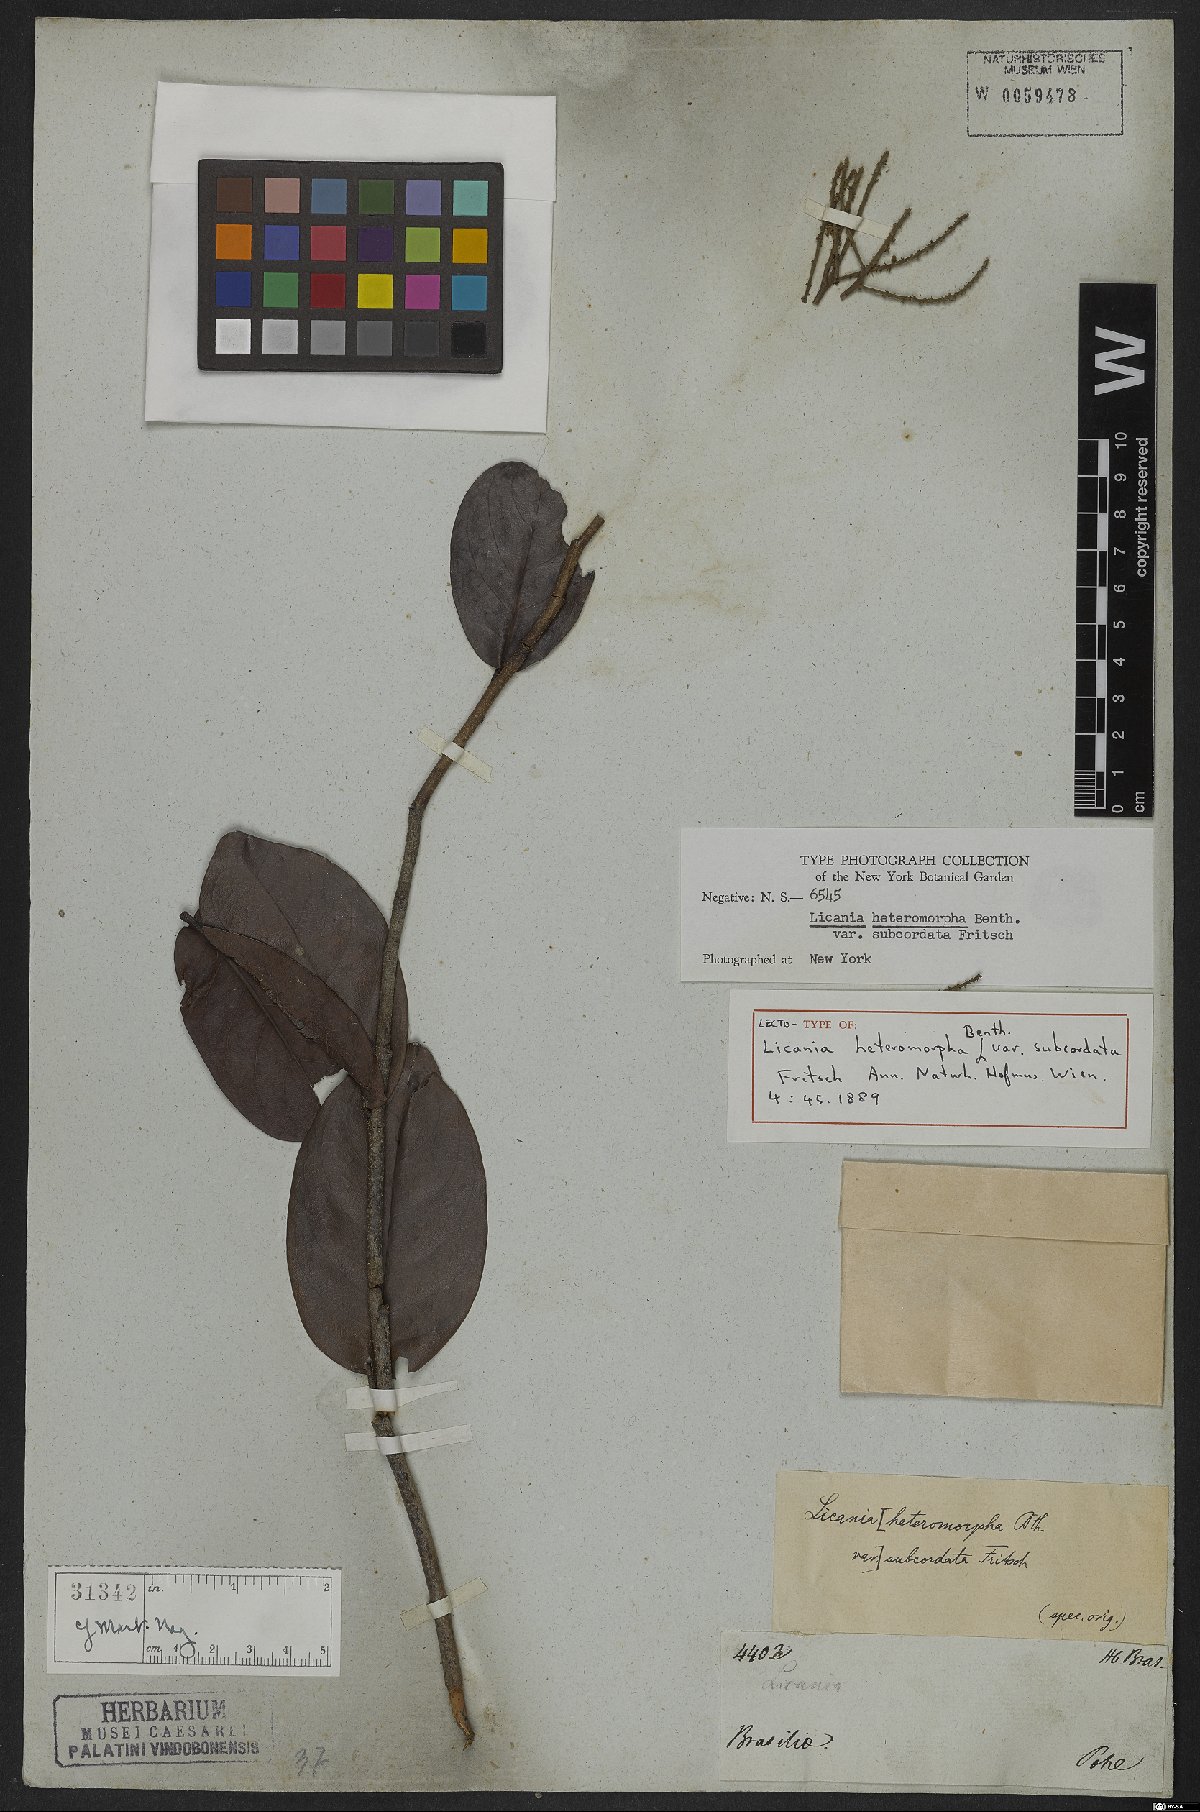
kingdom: Plantae
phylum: Tracheophyta
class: Magnoliopsida
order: Malpighiales
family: Chrysobalanaceae
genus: Hymenopus
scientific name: Hymenopus heteromorphus
